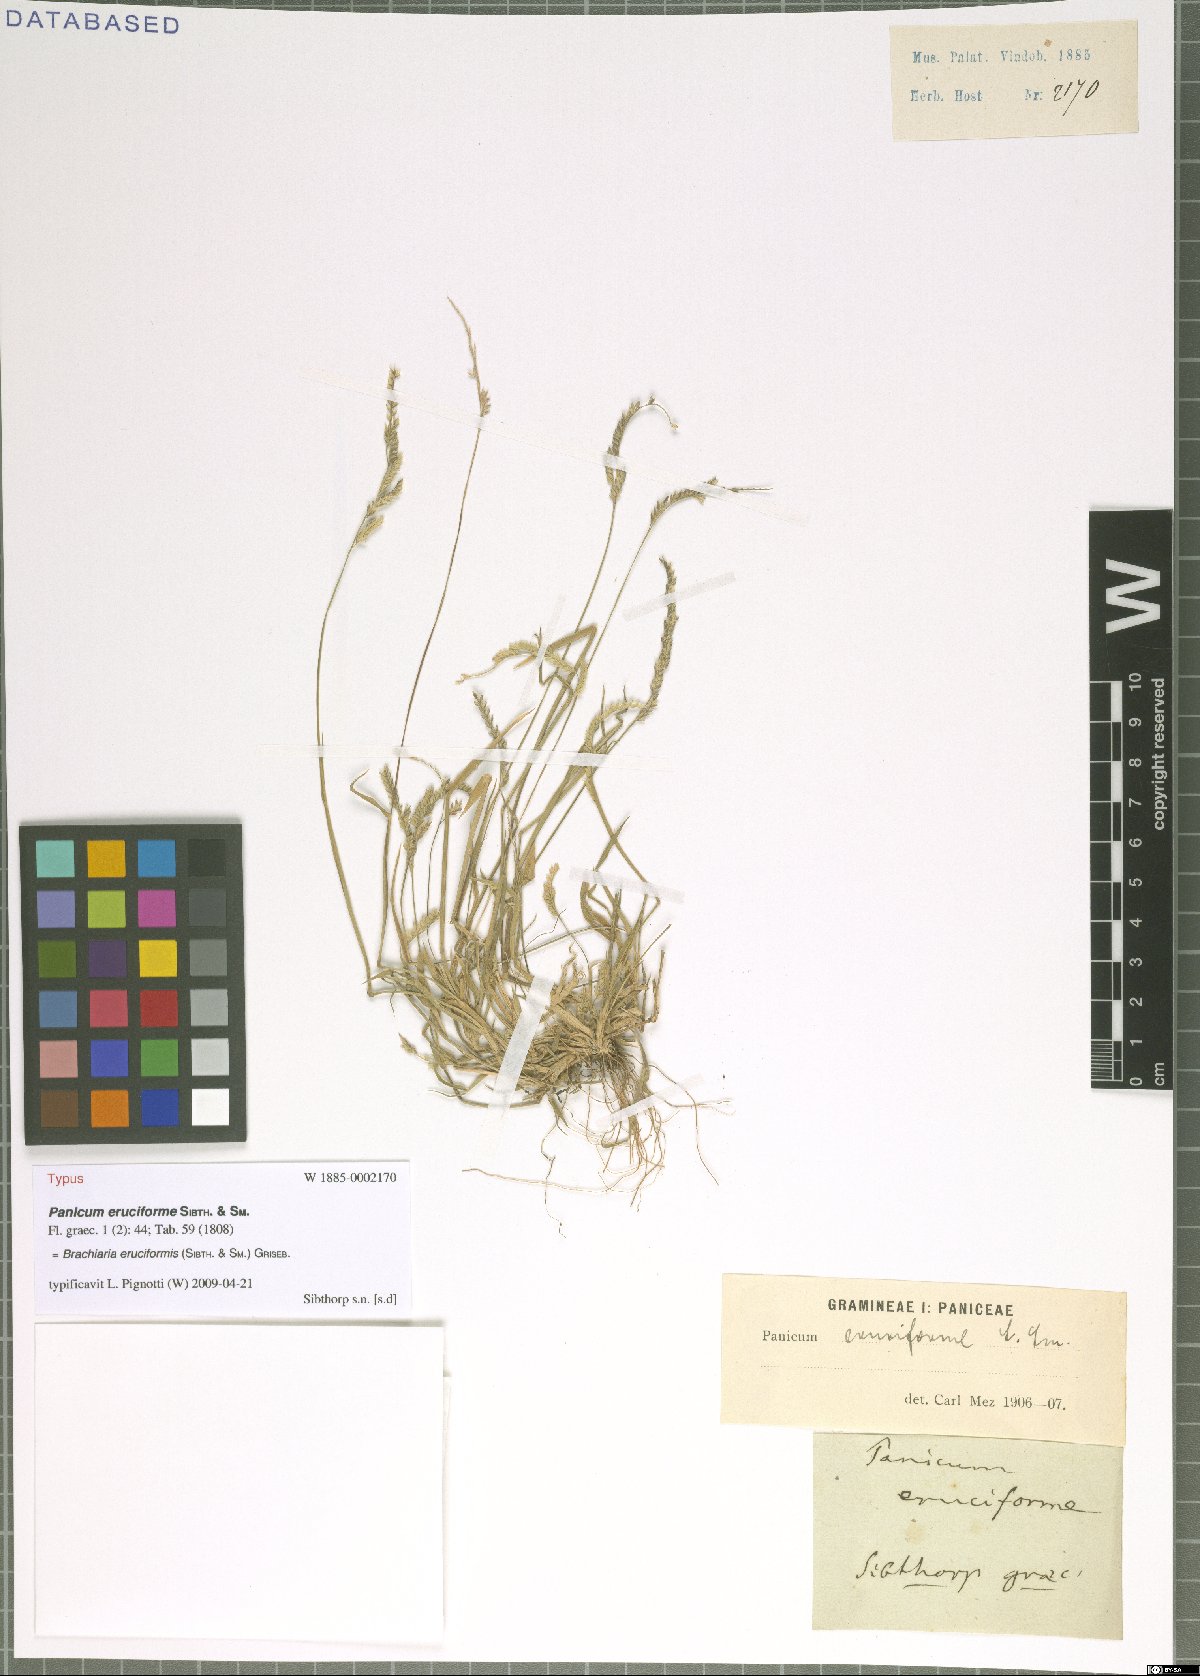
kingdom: Plantae
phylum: Tracheophyta
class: Liliopsida
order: Poales
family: Poaceae
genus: Moorochloa
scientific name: Moorochloa eruciformis
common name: Sweet signalgrass
